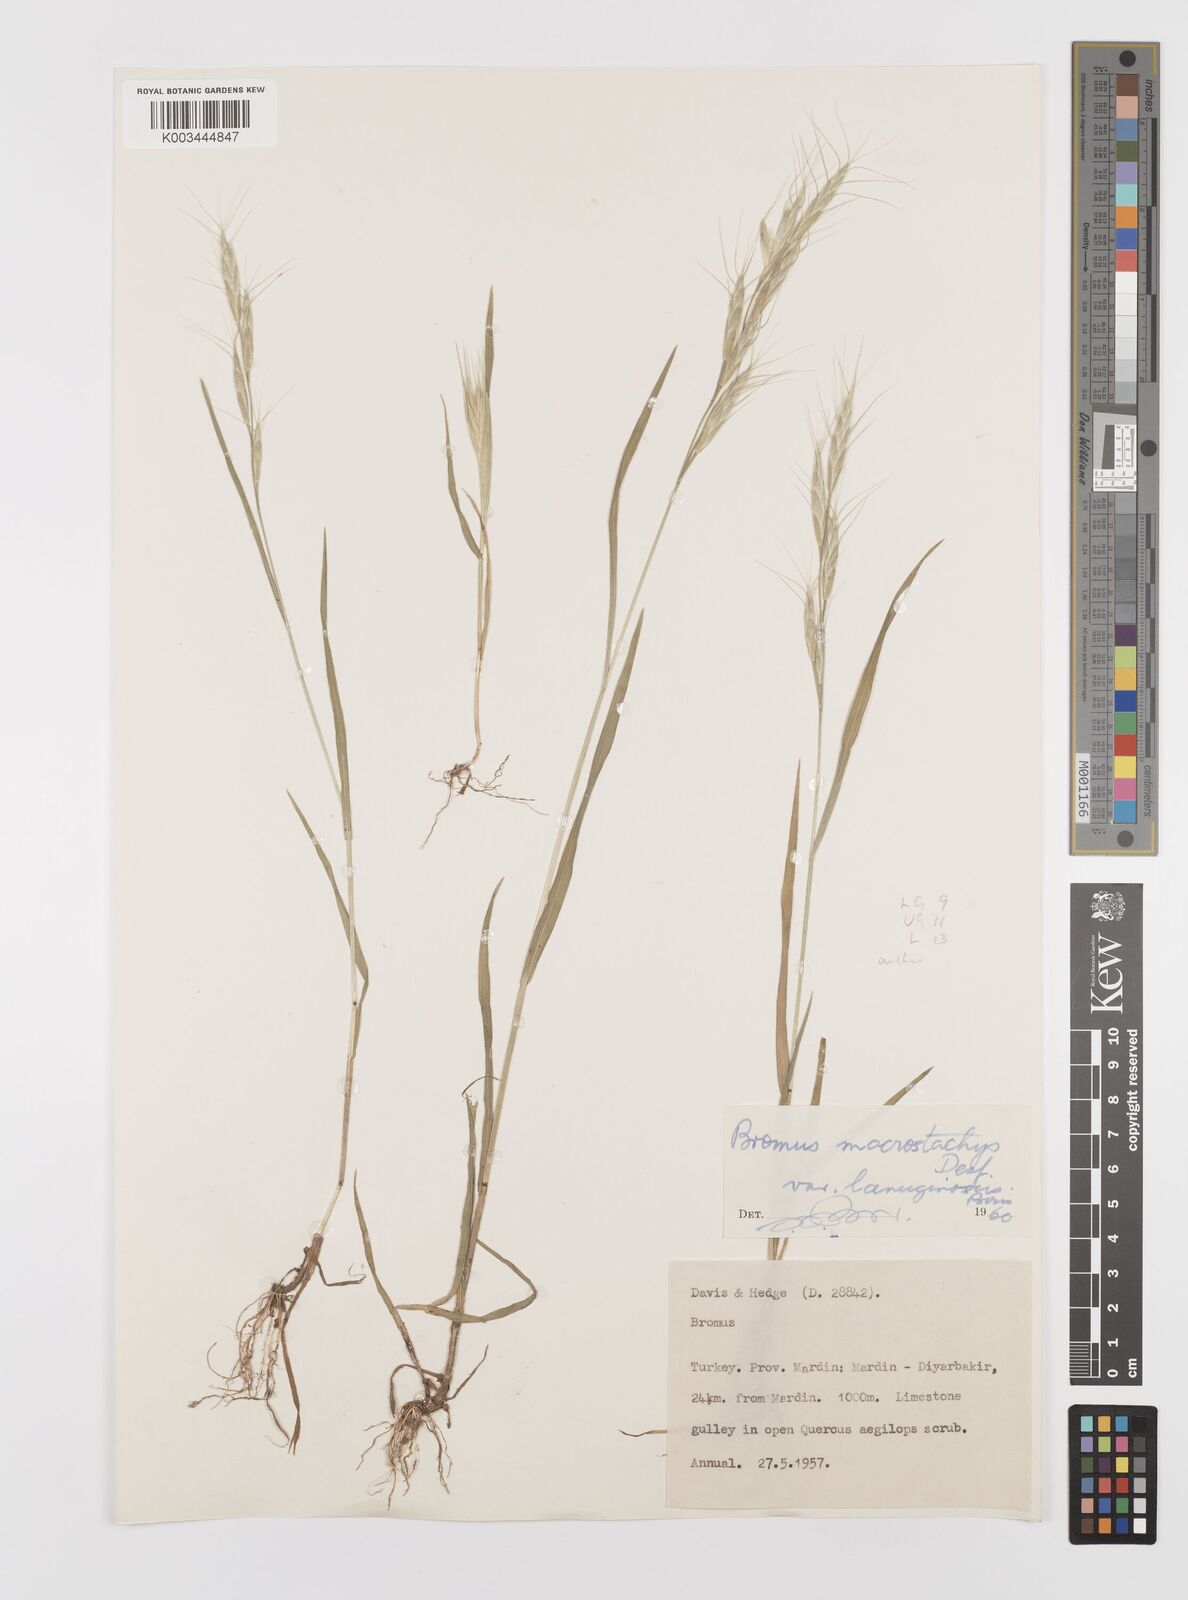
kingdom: Plantae
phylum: Tracheophyta
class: Liliopsida
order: Poales
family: Poaceae
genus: Bromus
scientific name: Bromus lanceolatus
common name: Mediterranean brome
